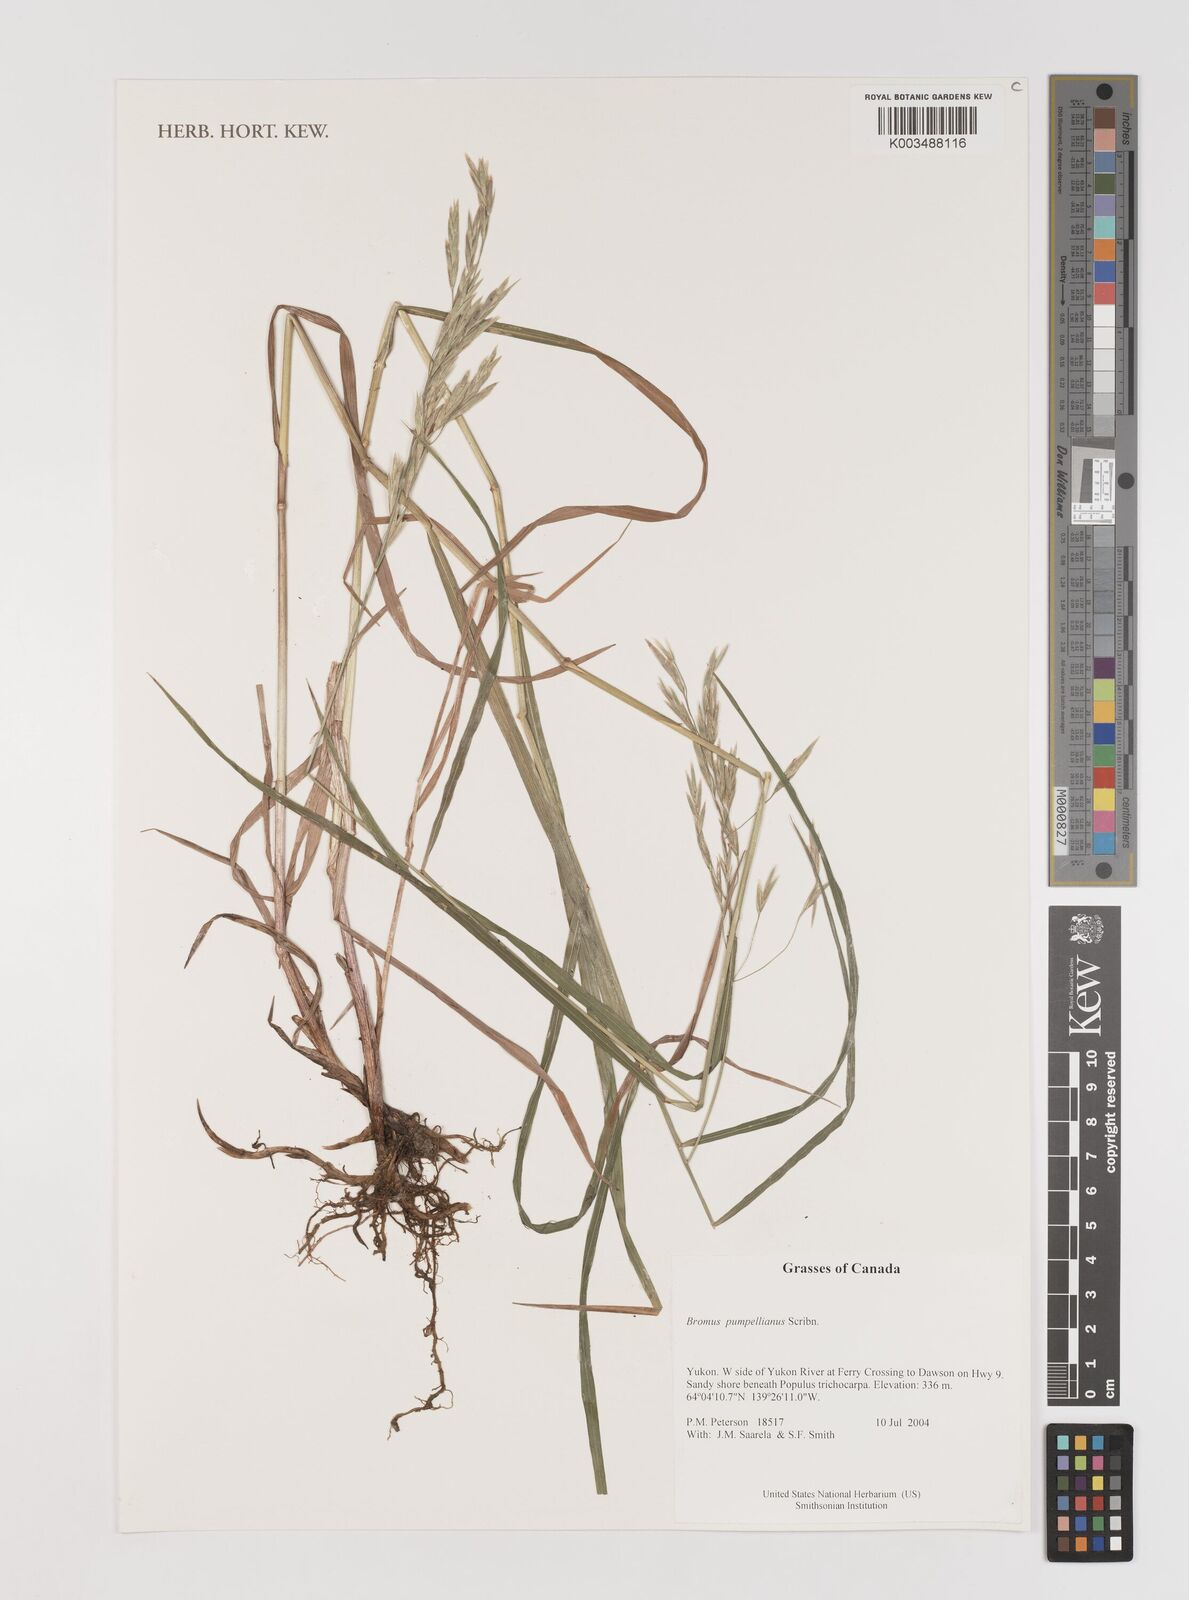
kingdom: Plantae
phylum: Tracheophyta
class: Liliopsida
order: Poales
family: Poaceae
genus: Bromus
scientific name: Bromus pumpellianus
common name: Pumpelly's brome
